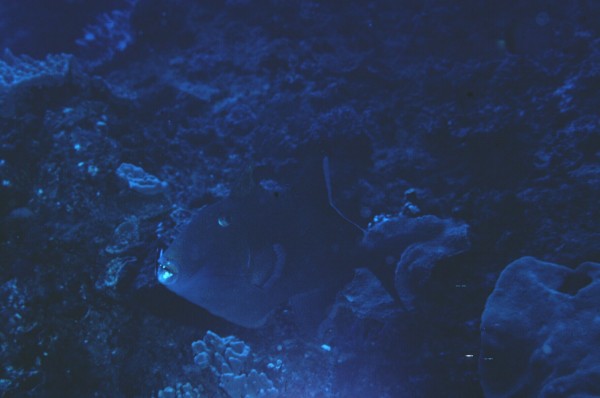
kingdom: Animalia
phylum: Chordata
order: Tetraodontiformes
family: Balistidae
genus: Pseudobalistes
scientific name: Pseudobalistes fuscus
